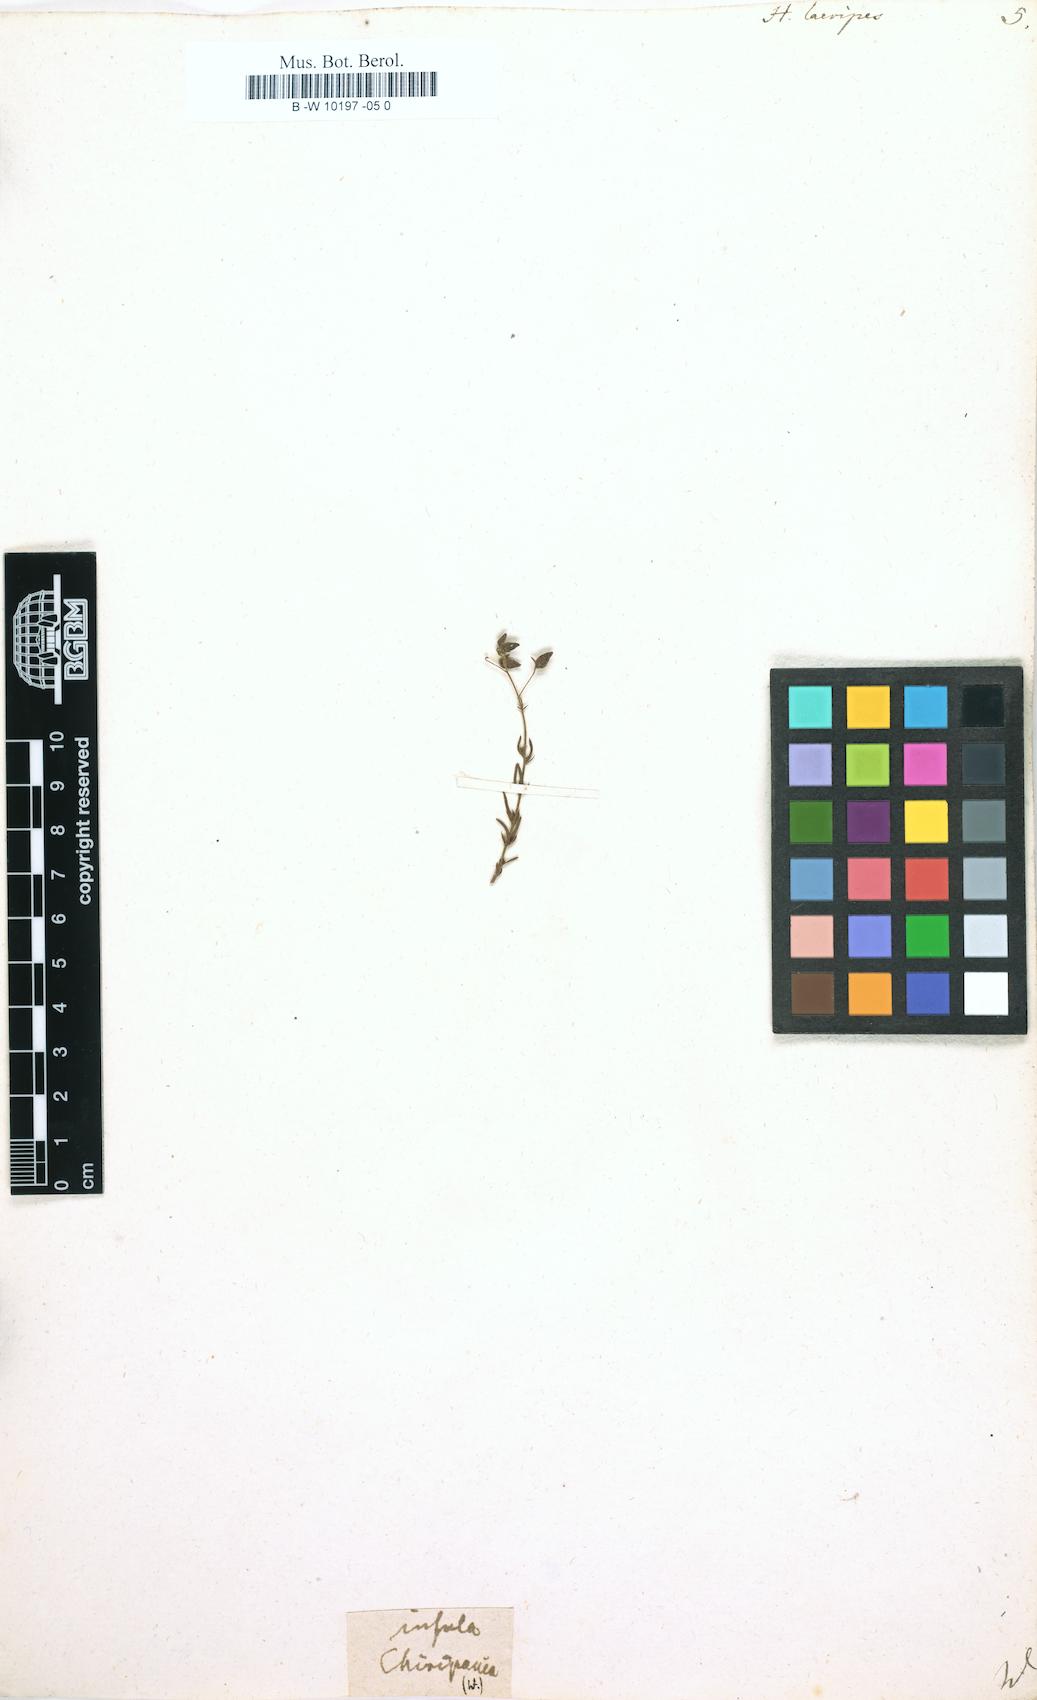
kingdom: Plantae
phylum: Tracheophyta
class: Magnoliopsida
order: Malvales
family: Cistaceae
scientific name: Cistaceae
